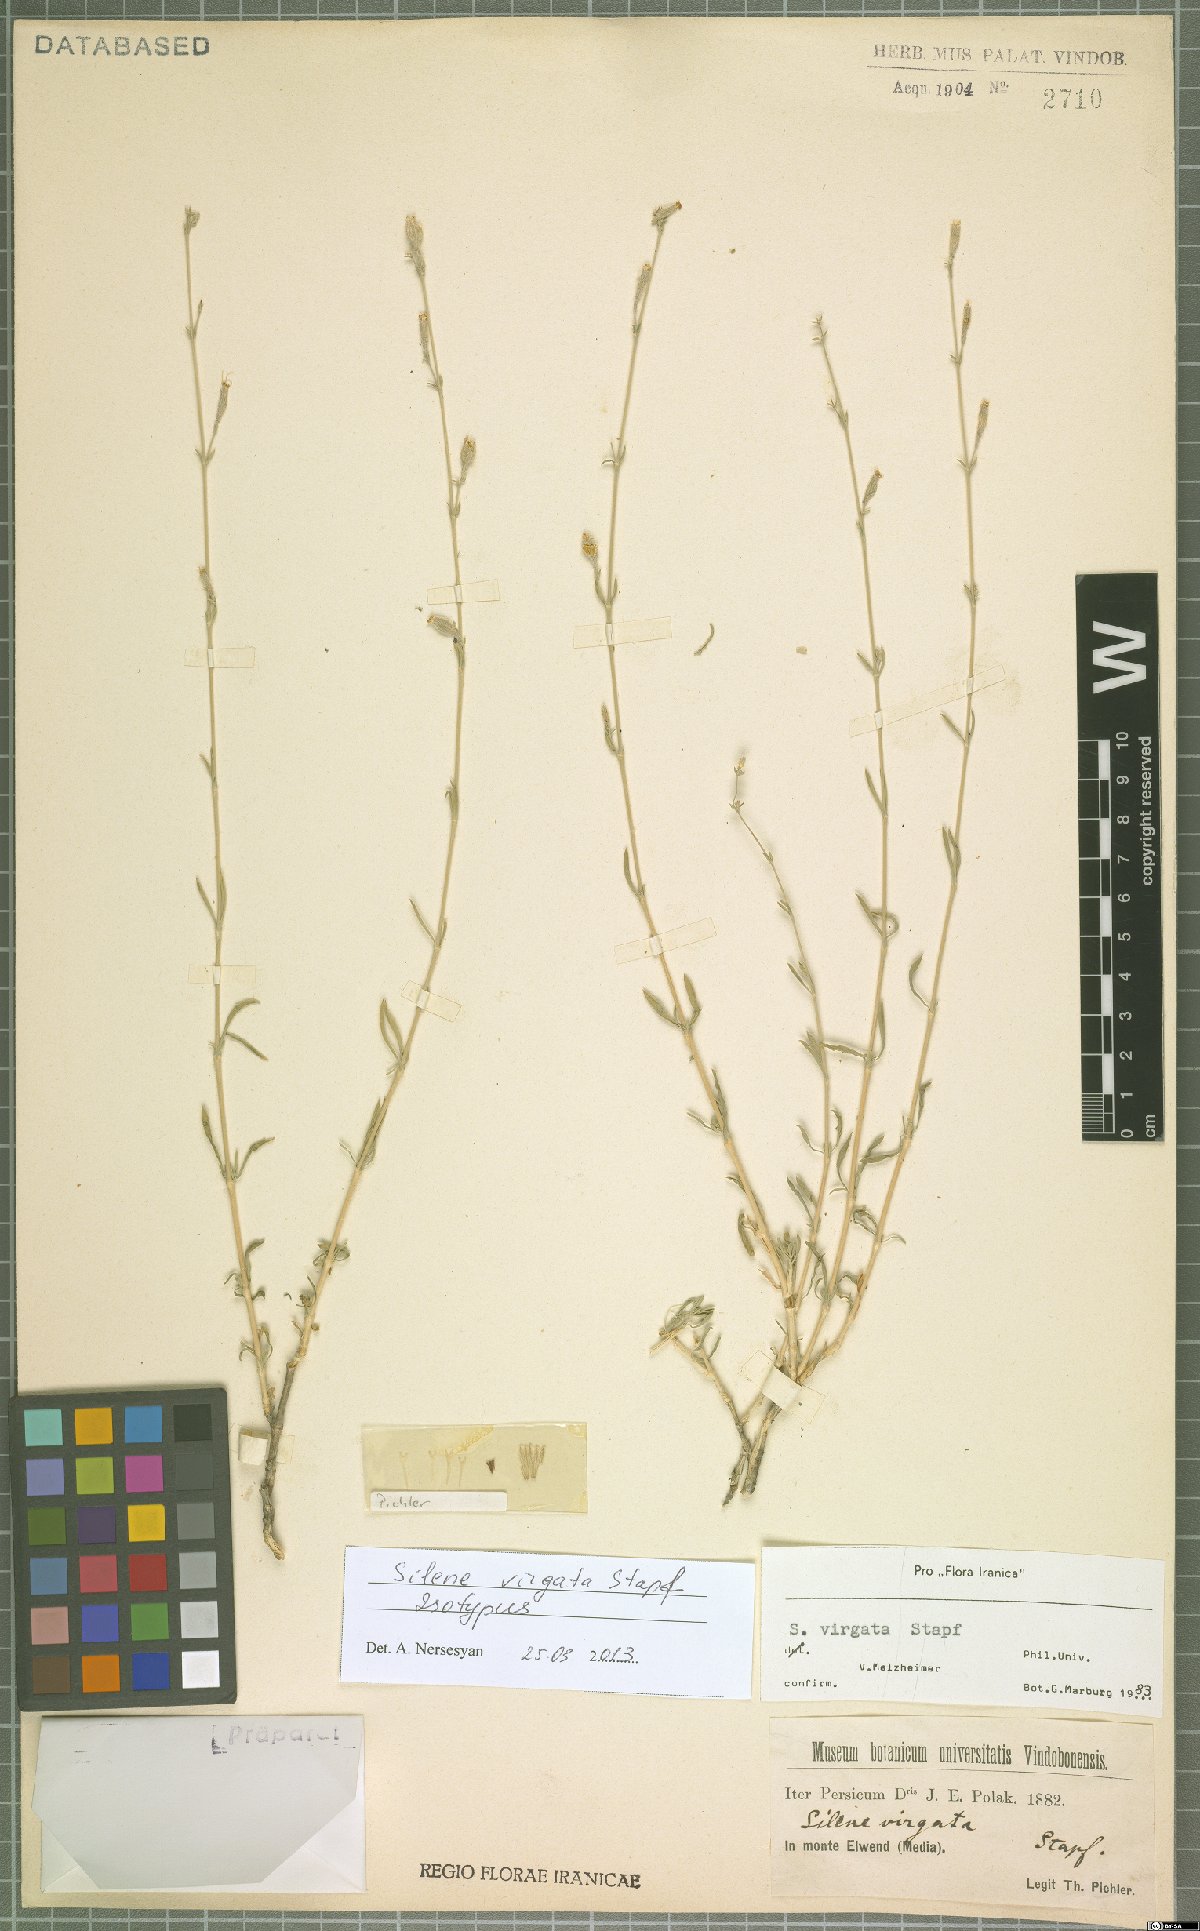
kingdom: Plantae
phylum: Tracheophyta
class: Magnoliopsida
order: Caryophyllales
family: Caryophyllaceae
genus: Silene
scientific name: Silene virgata
